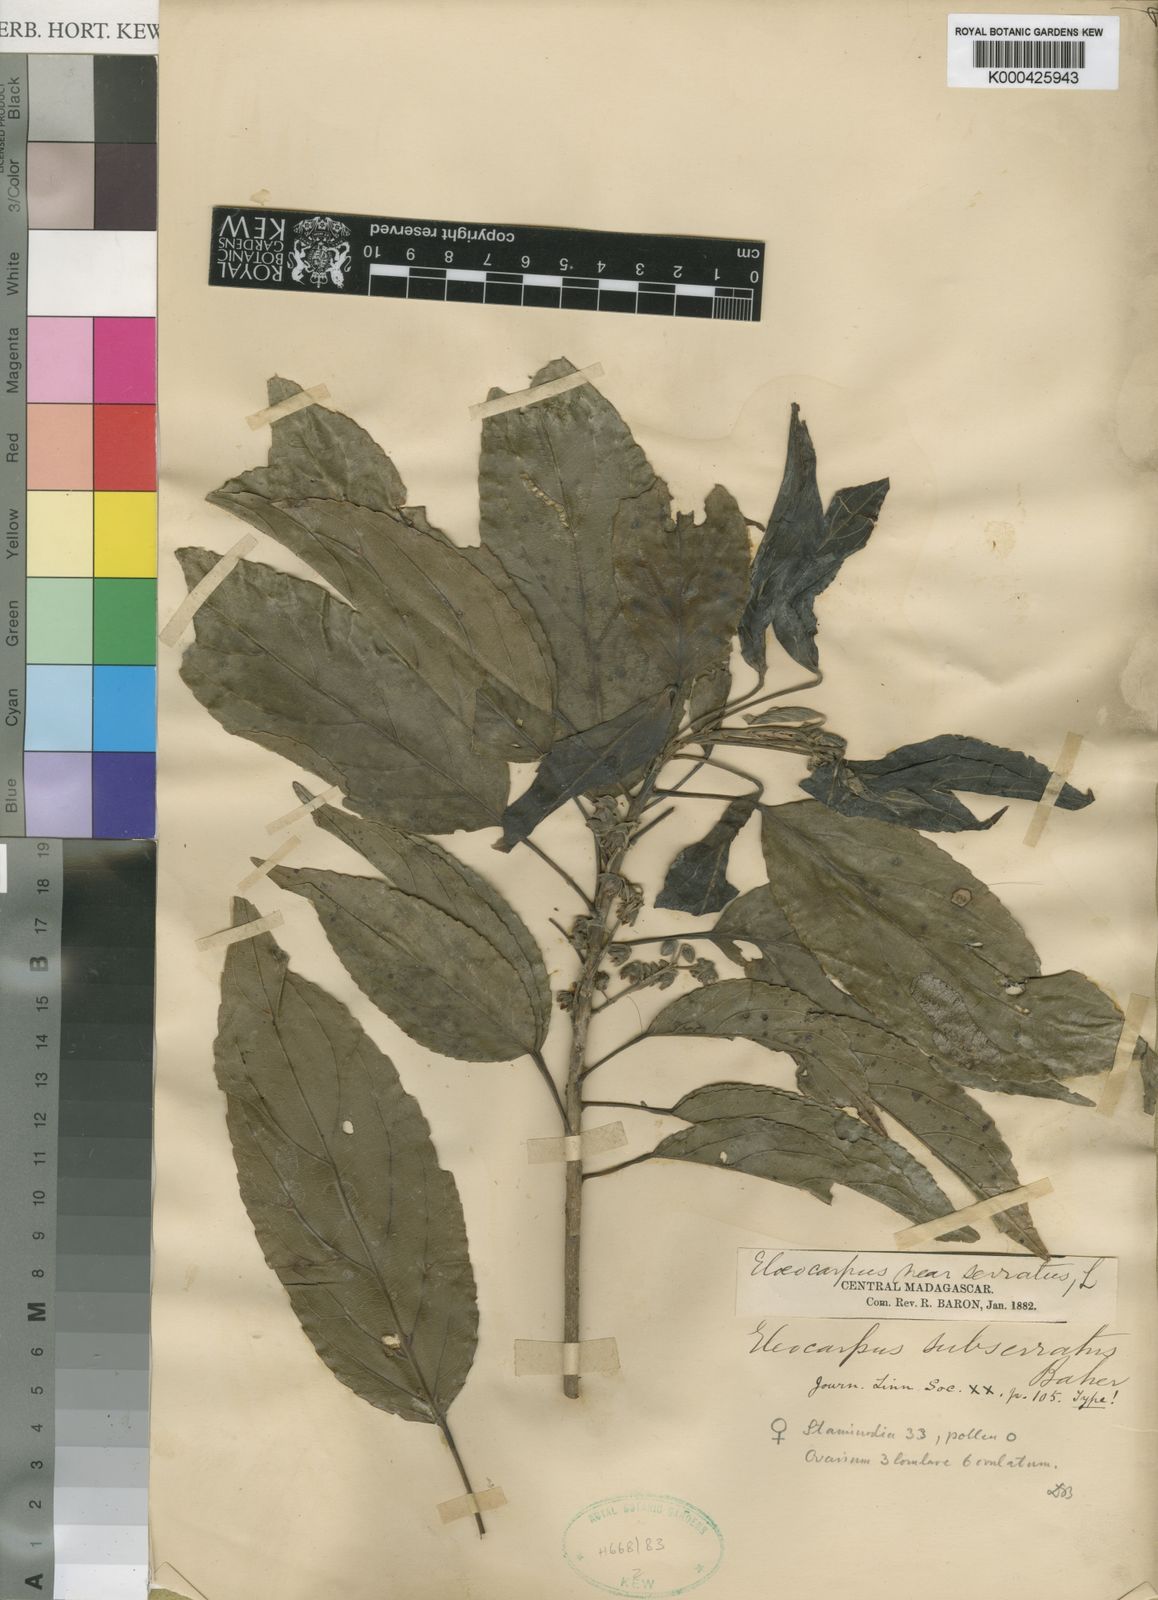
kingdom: Plantae
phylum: Tracheophyta
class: Magnoliopsida
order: Oxalidales
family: Elaeocarpaceae
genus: Elaeocarpus
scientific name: Elaeocarpus subserratus
